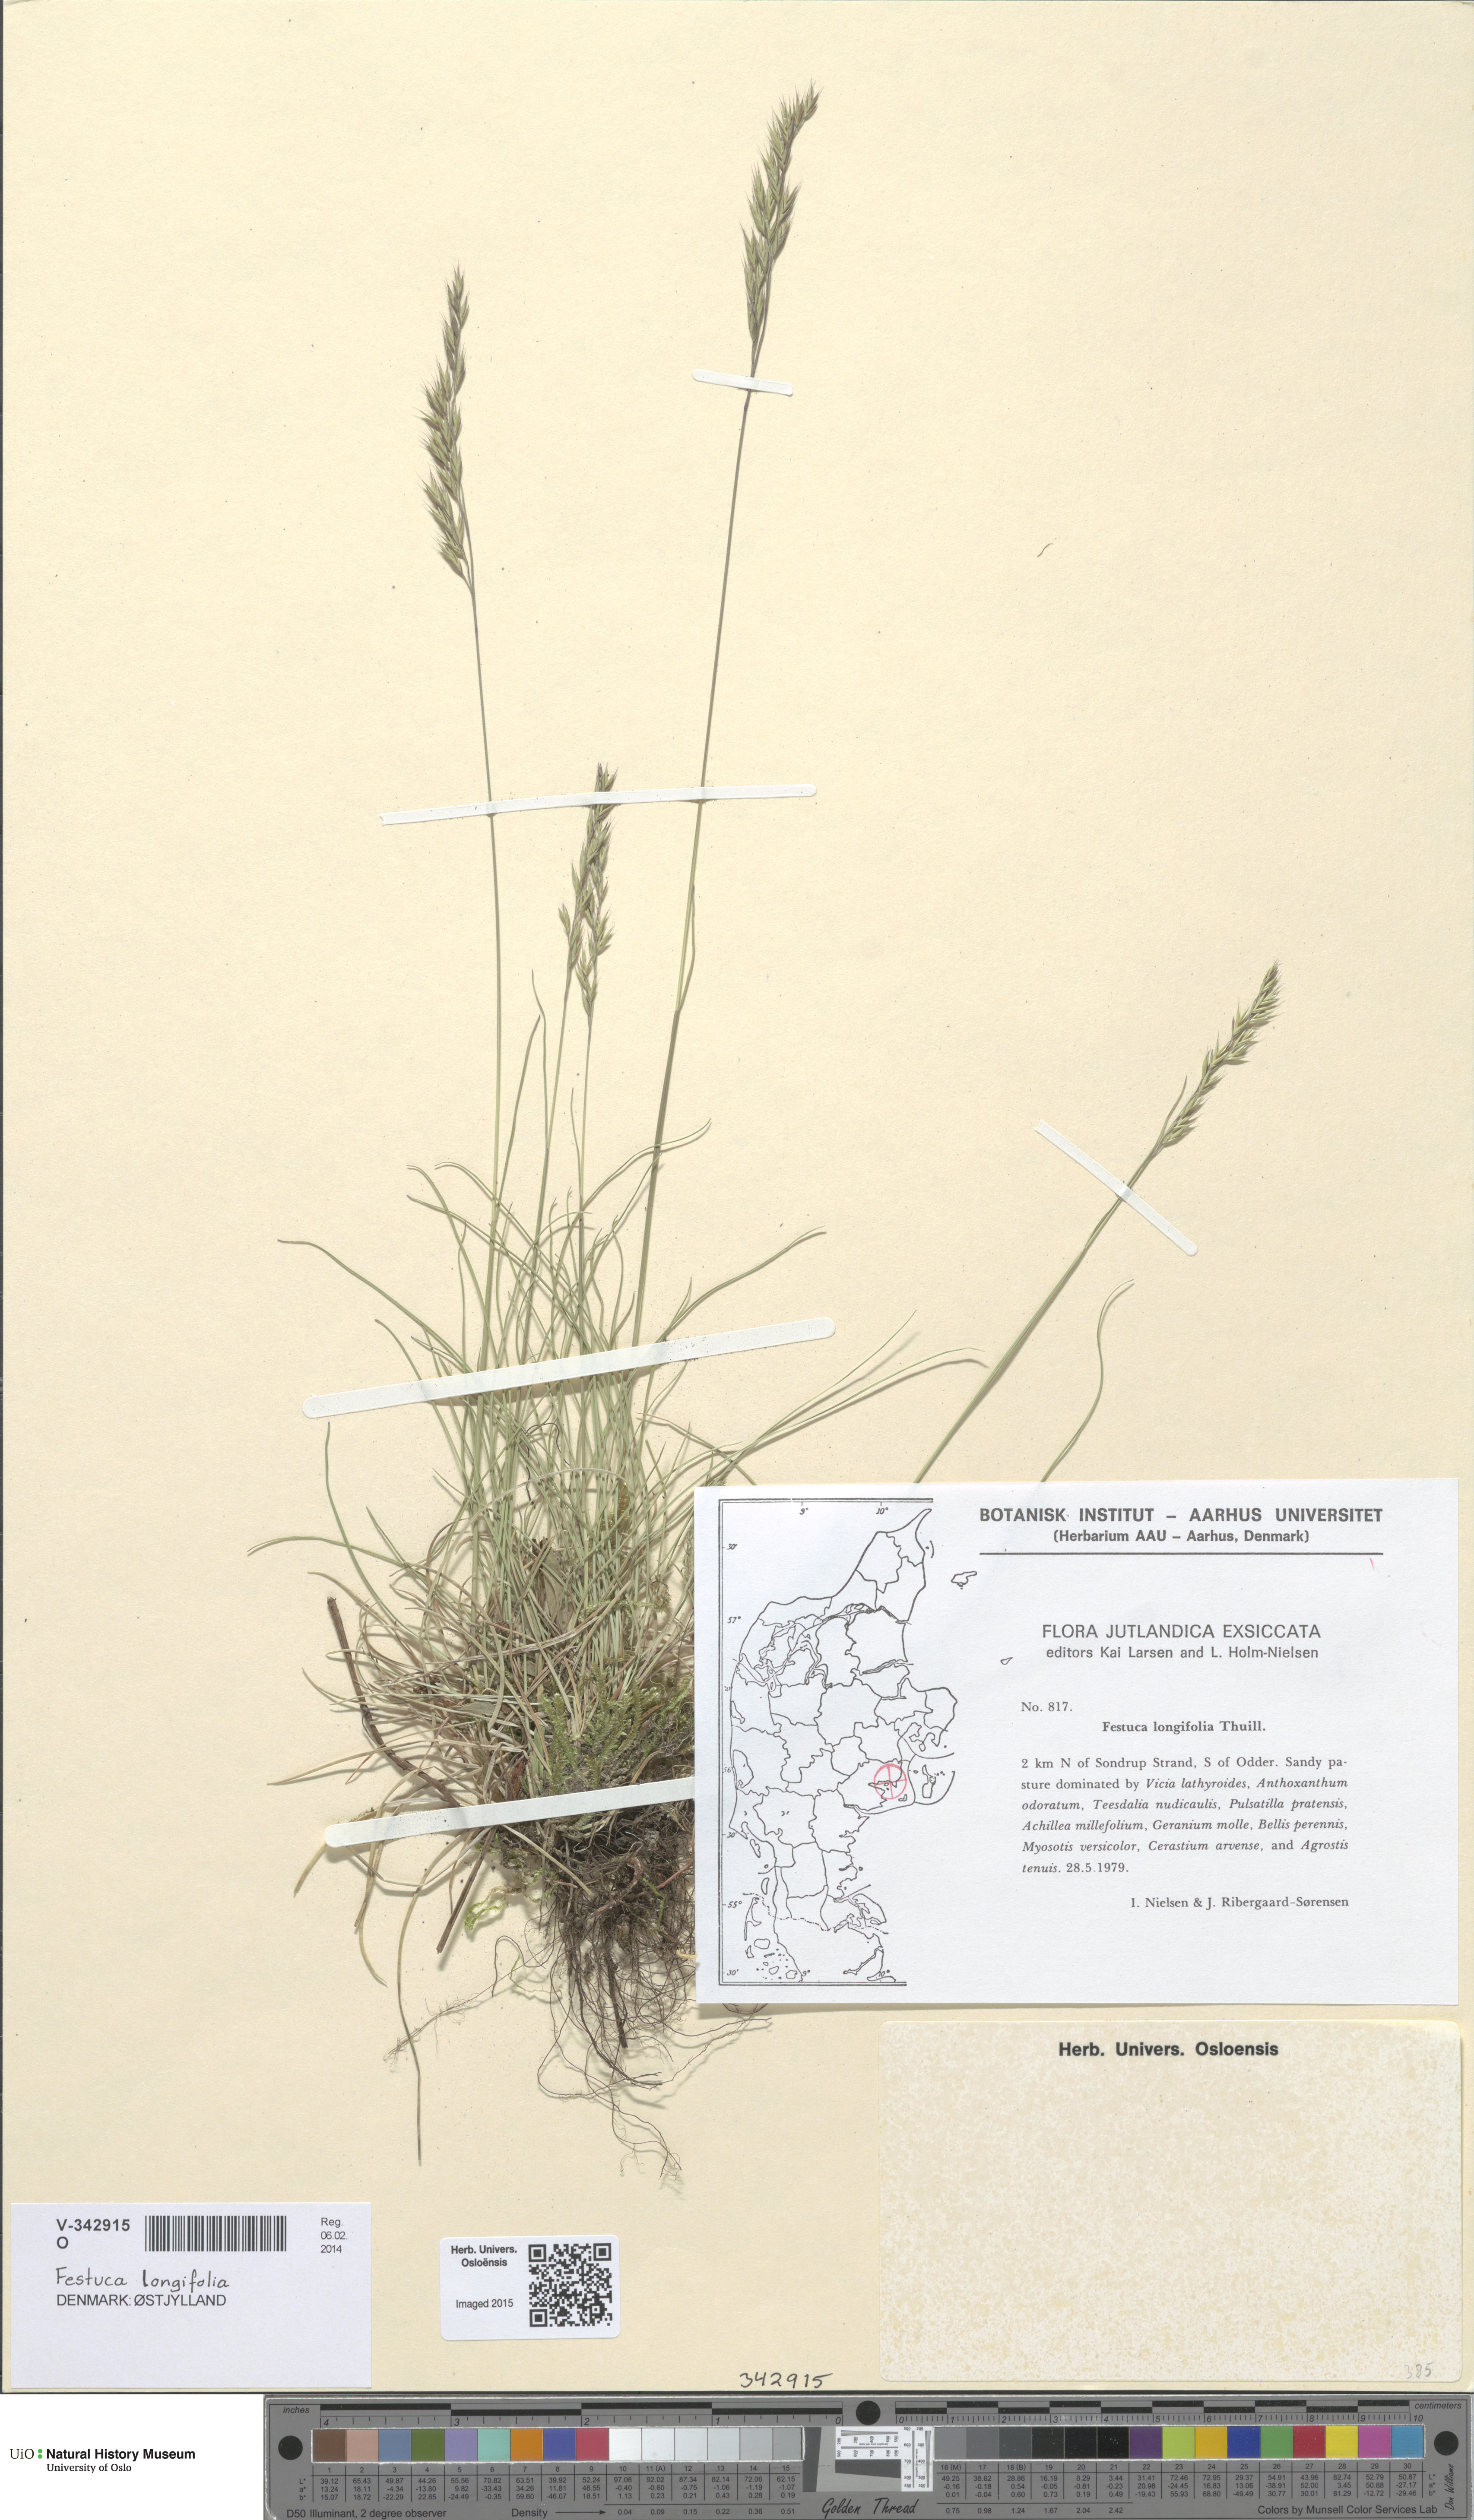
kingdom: Plantae
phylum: Tracheophyta
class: Liliopsida
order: Poales
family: Poaceae
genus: Festuca
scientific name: Festuca longifolia
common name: Blue fescue
